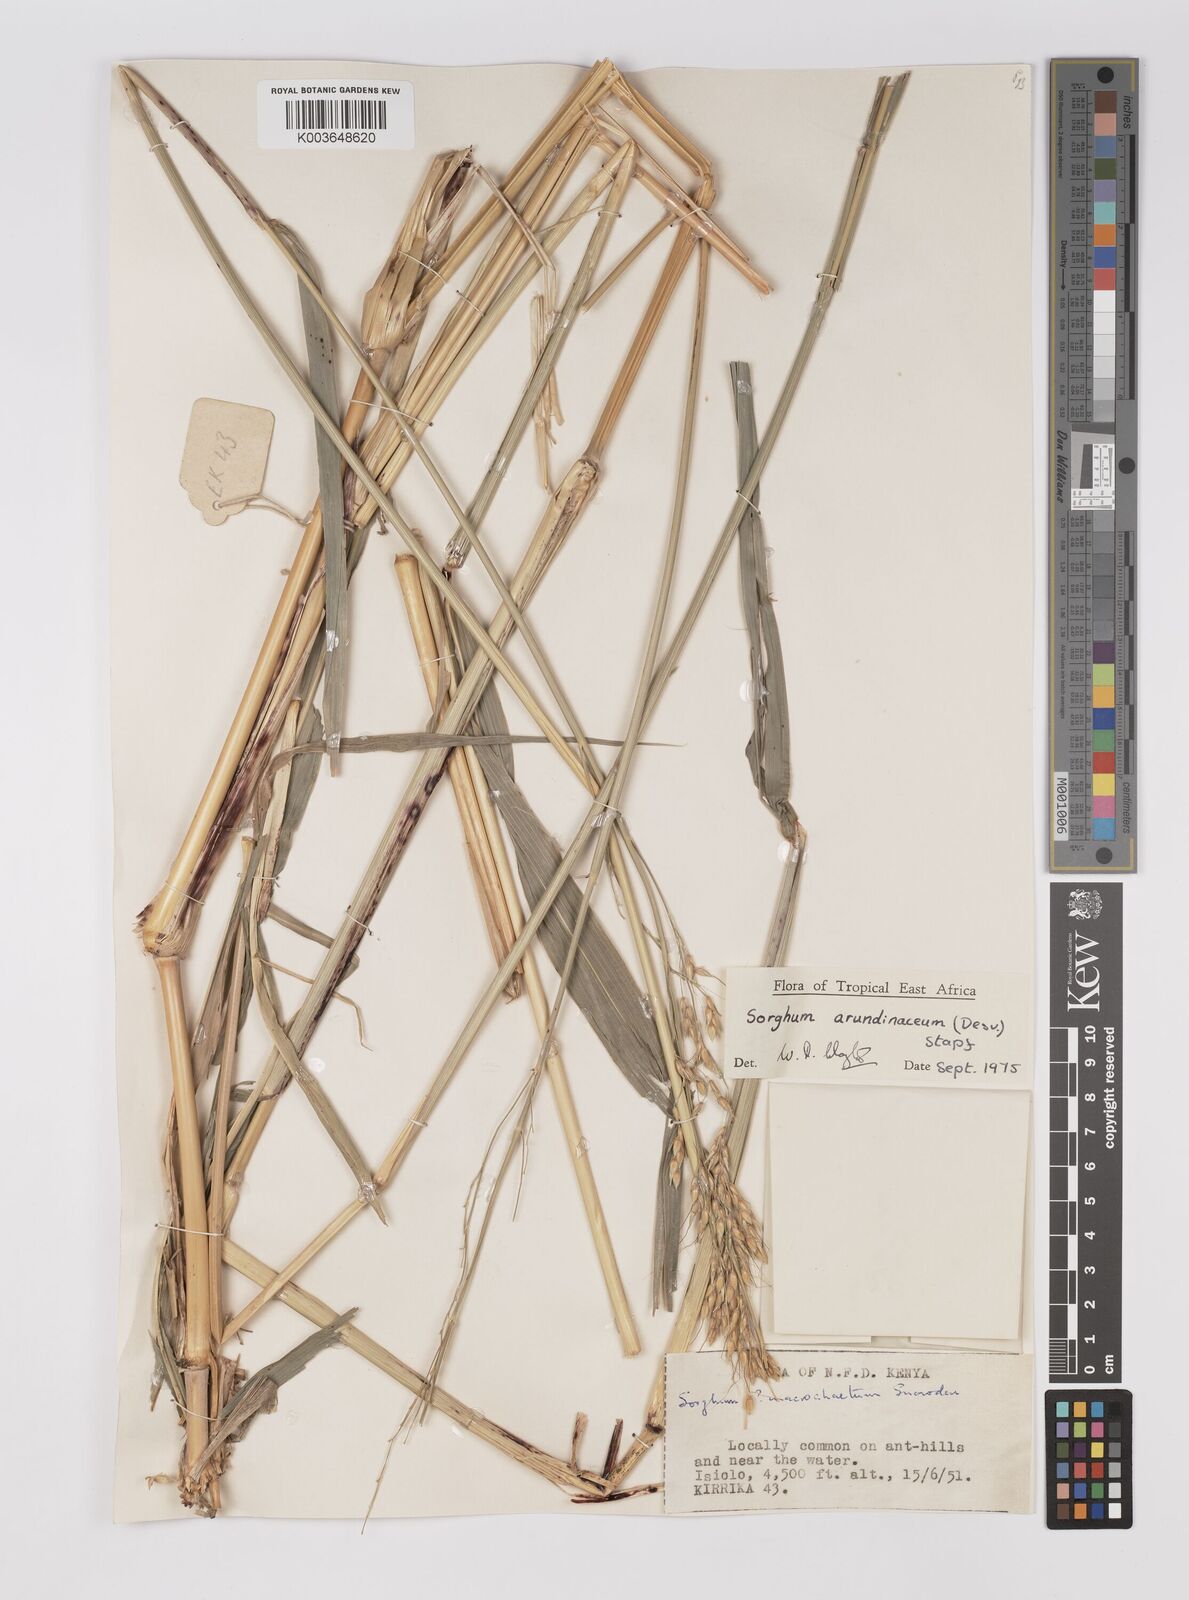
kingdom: Plantae
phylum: Tracheophyta
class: Liliopsida
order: Poales
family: Poaceae
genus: Sorghum
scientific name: Sorghum arundinaceum
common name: Sorghum
